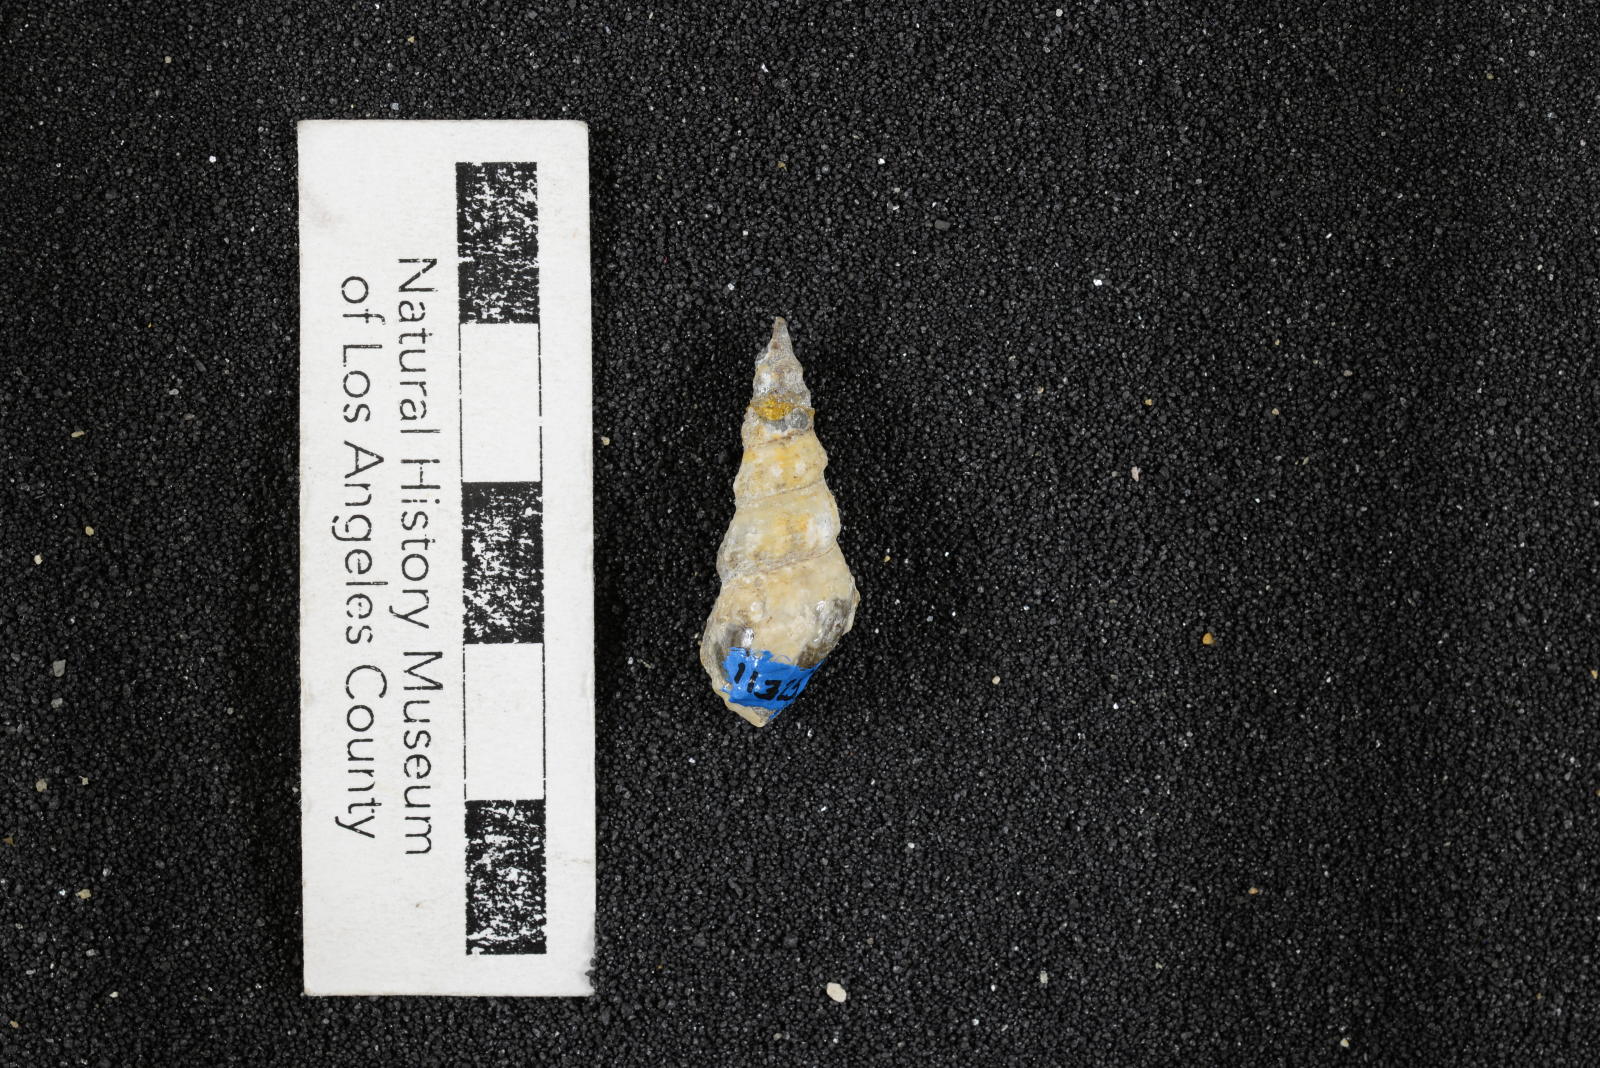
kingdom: Animalia
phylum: Mollusca
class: Gastropoda
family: Nerineidae
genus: Plesioptygmatis
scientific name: Plesioptygmatis Nerinea pseudoconvexa
